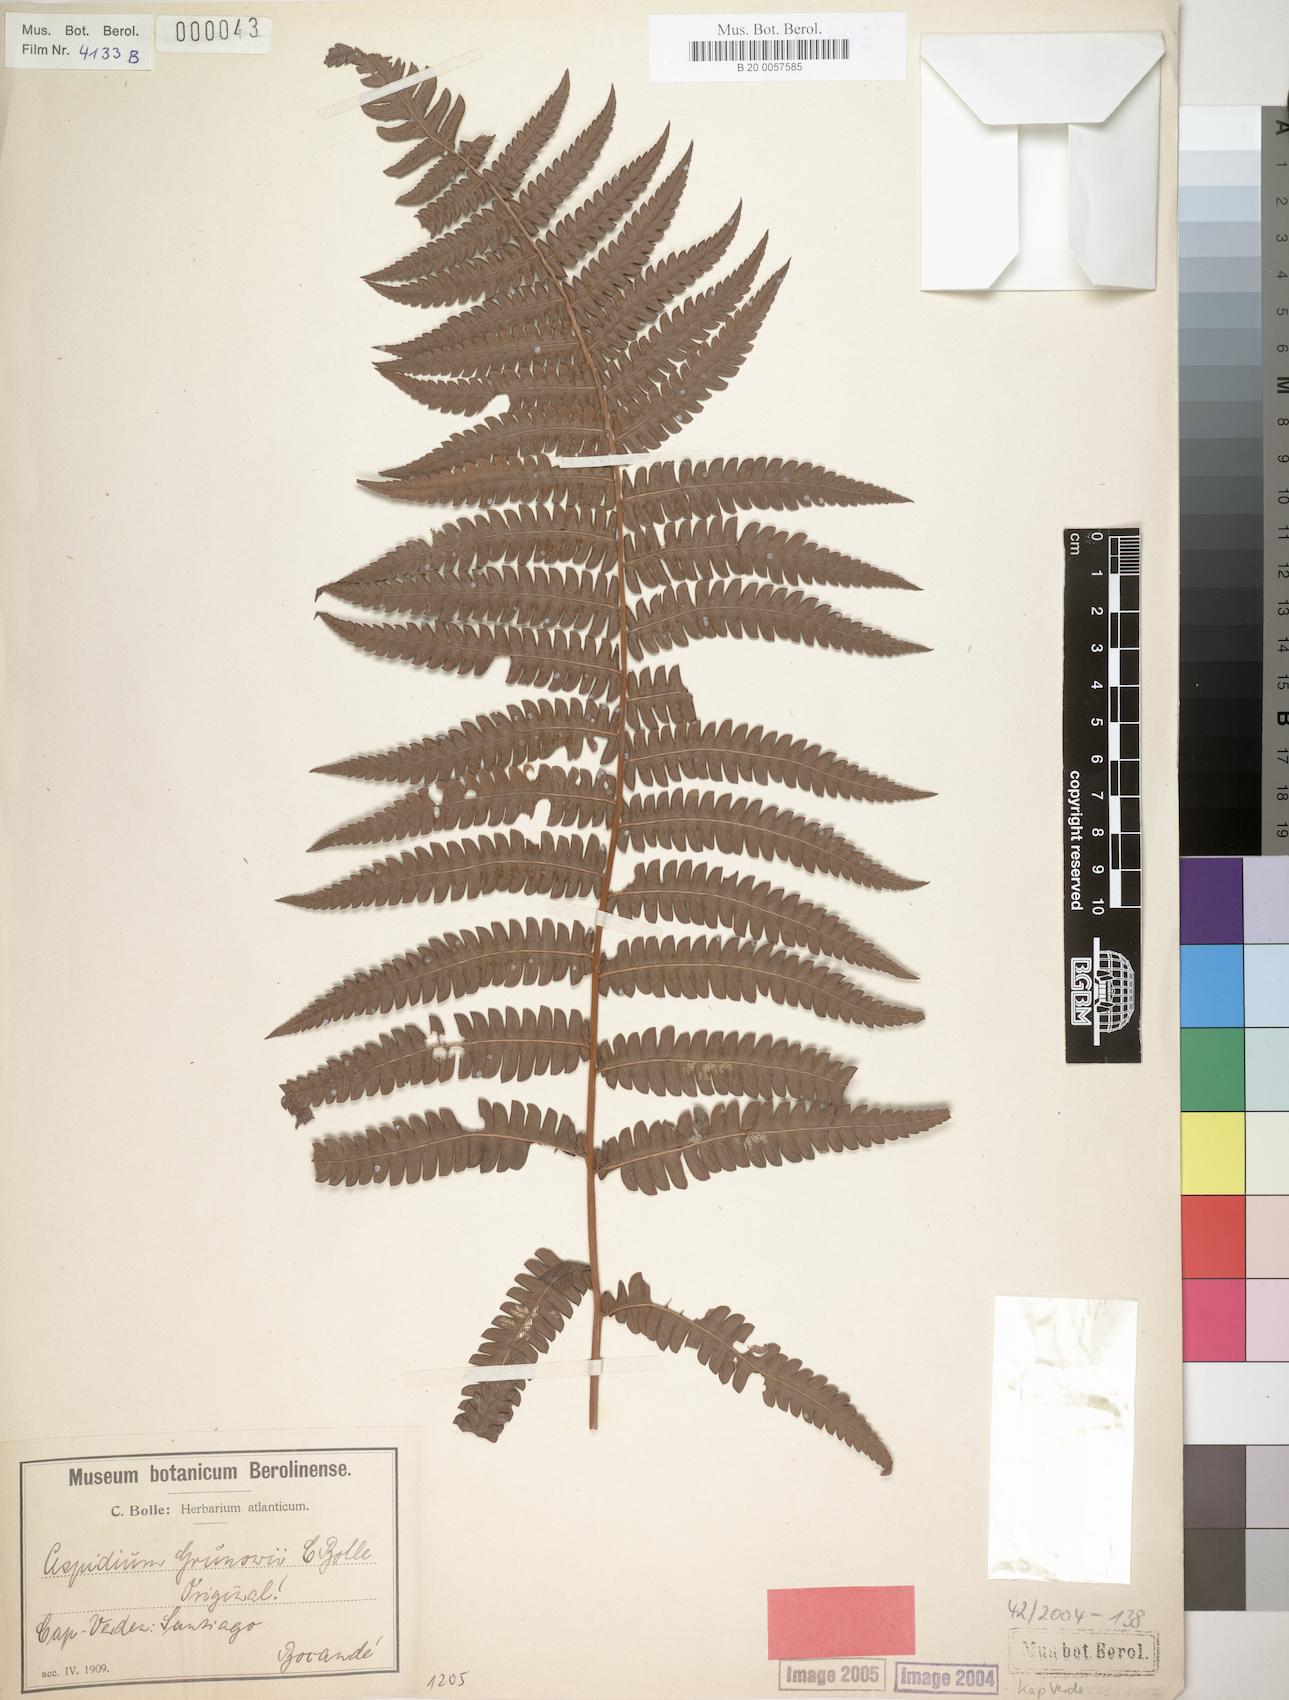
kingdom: Plantae
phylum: Tracheophyta
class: Polypodiopsida
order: Polypodiales
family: Thelypteridaceae
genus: Cyclosorus
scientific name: Cyclosorus striatus
